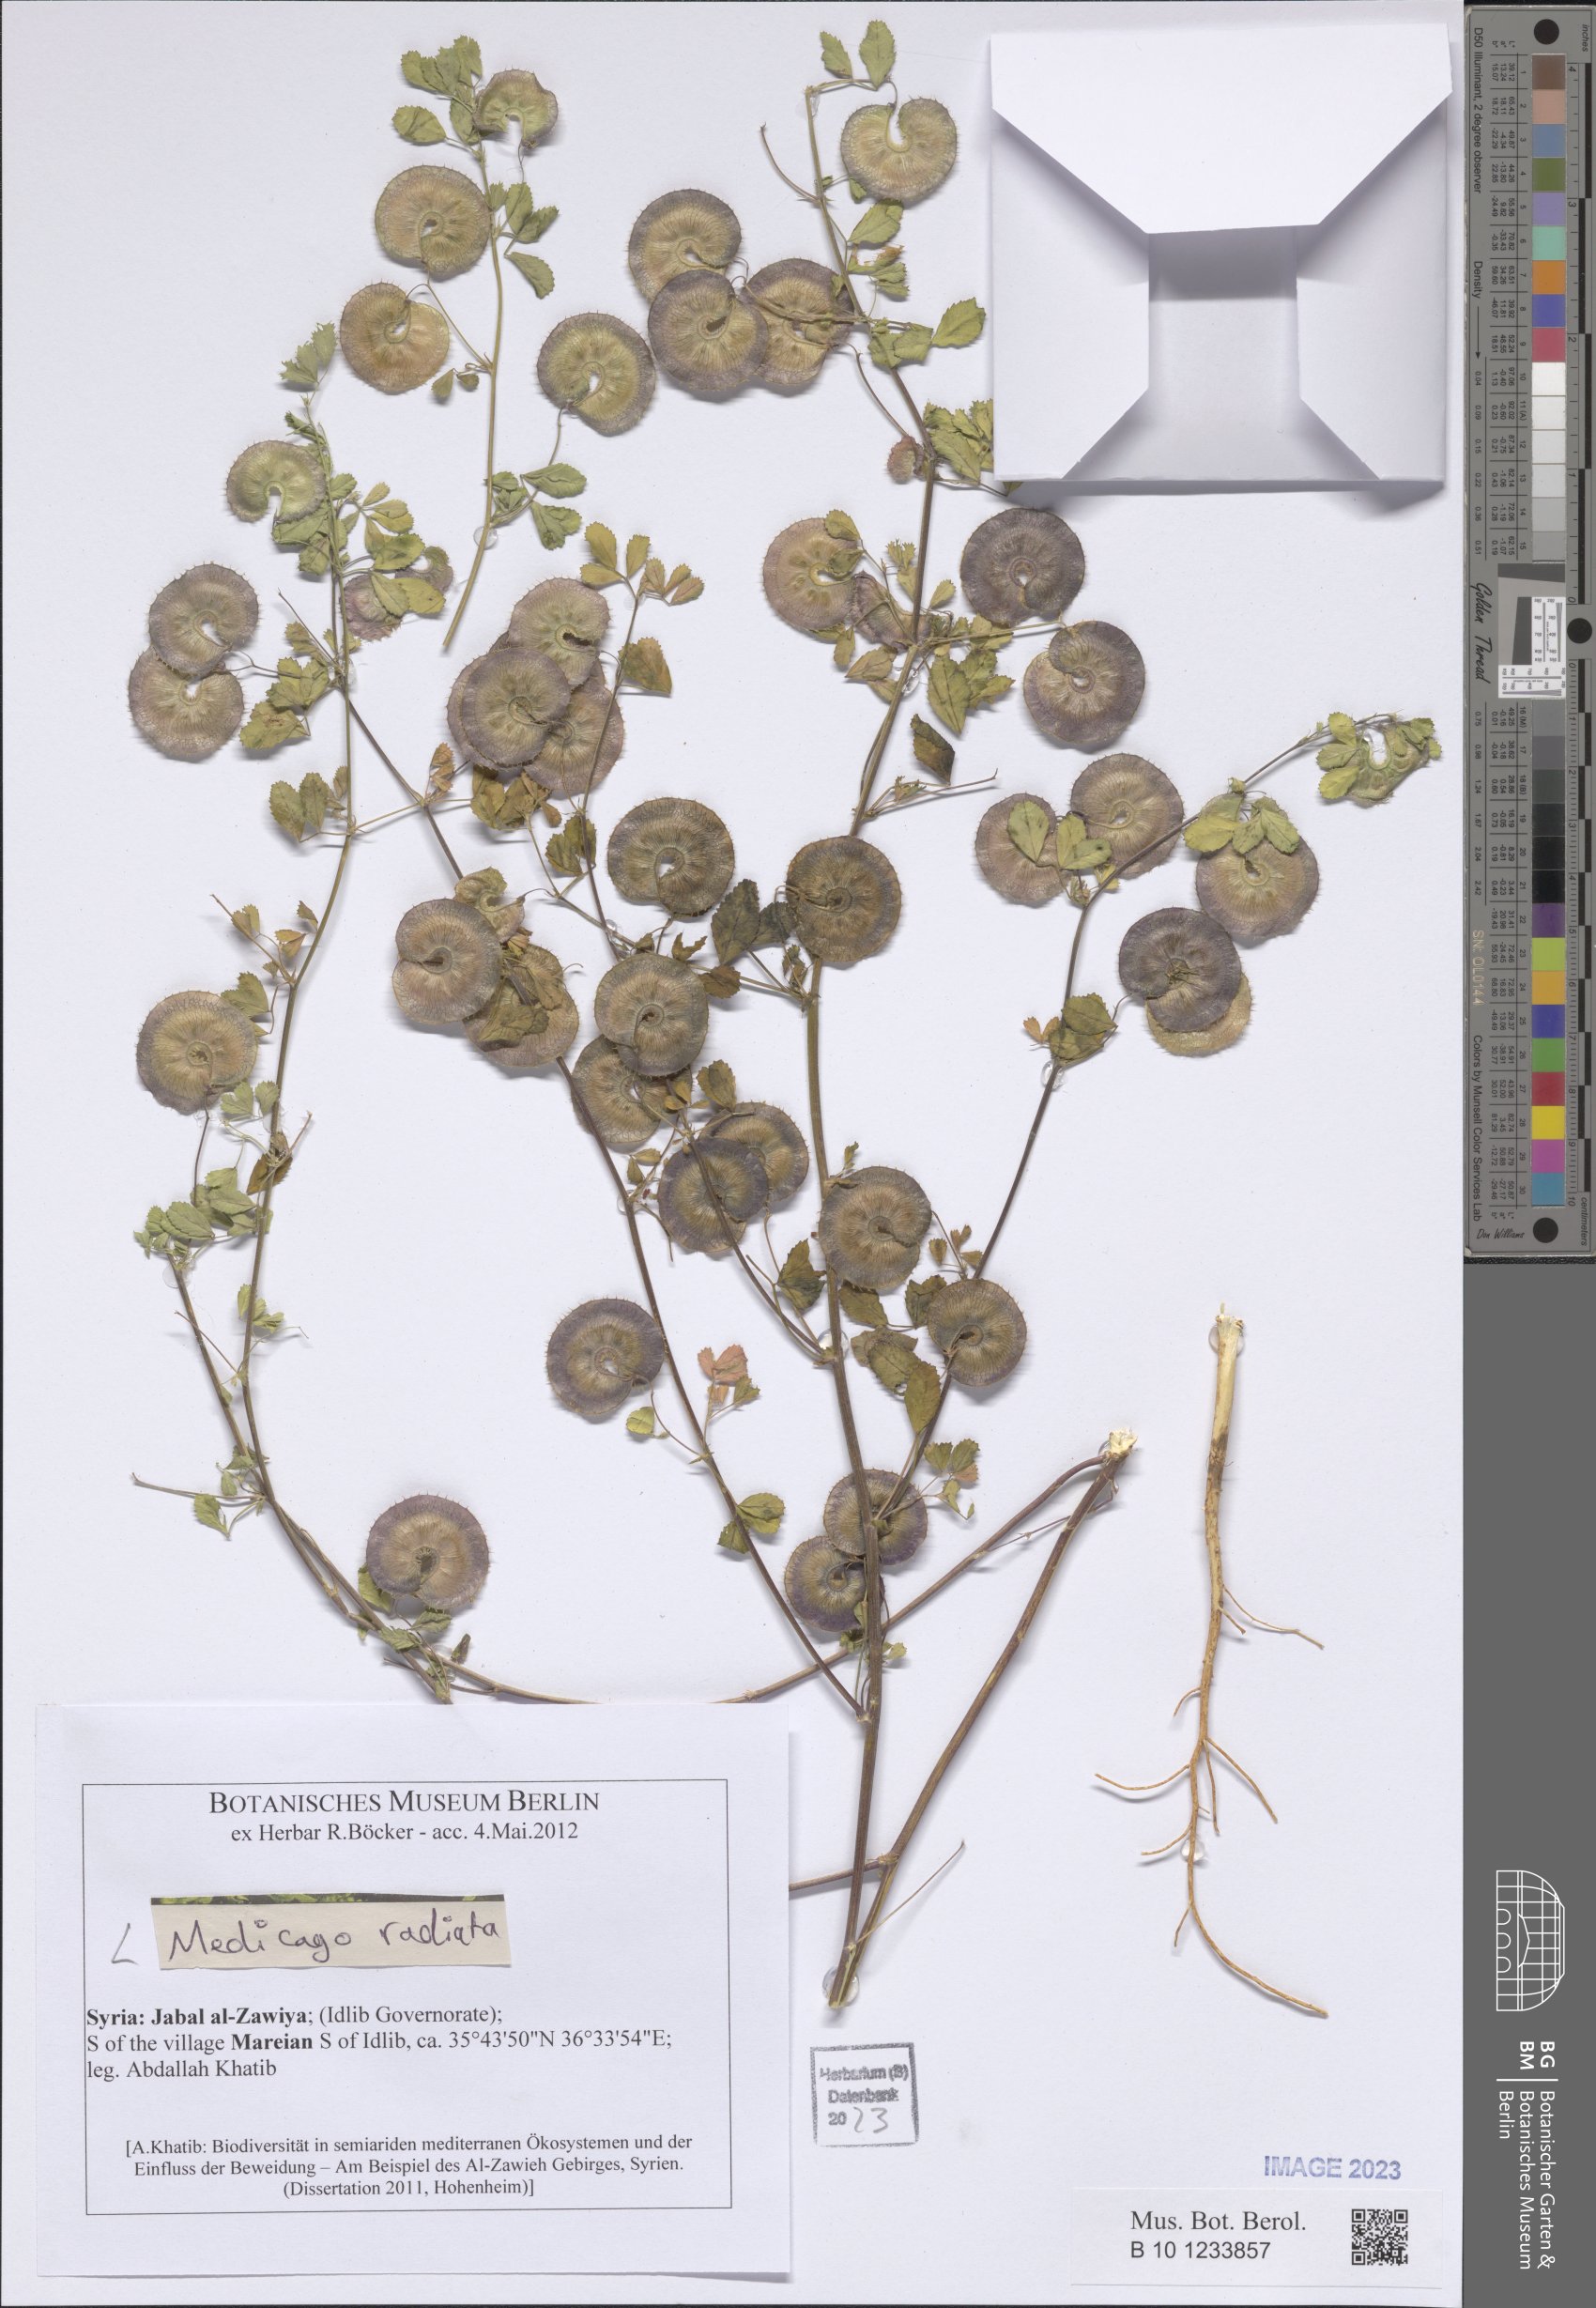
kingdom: Plantae
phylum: Tracheophyta
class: Magnoliopsida
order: Fabales
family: Fabaceae
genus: Medicago
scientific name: Medicago radiata
